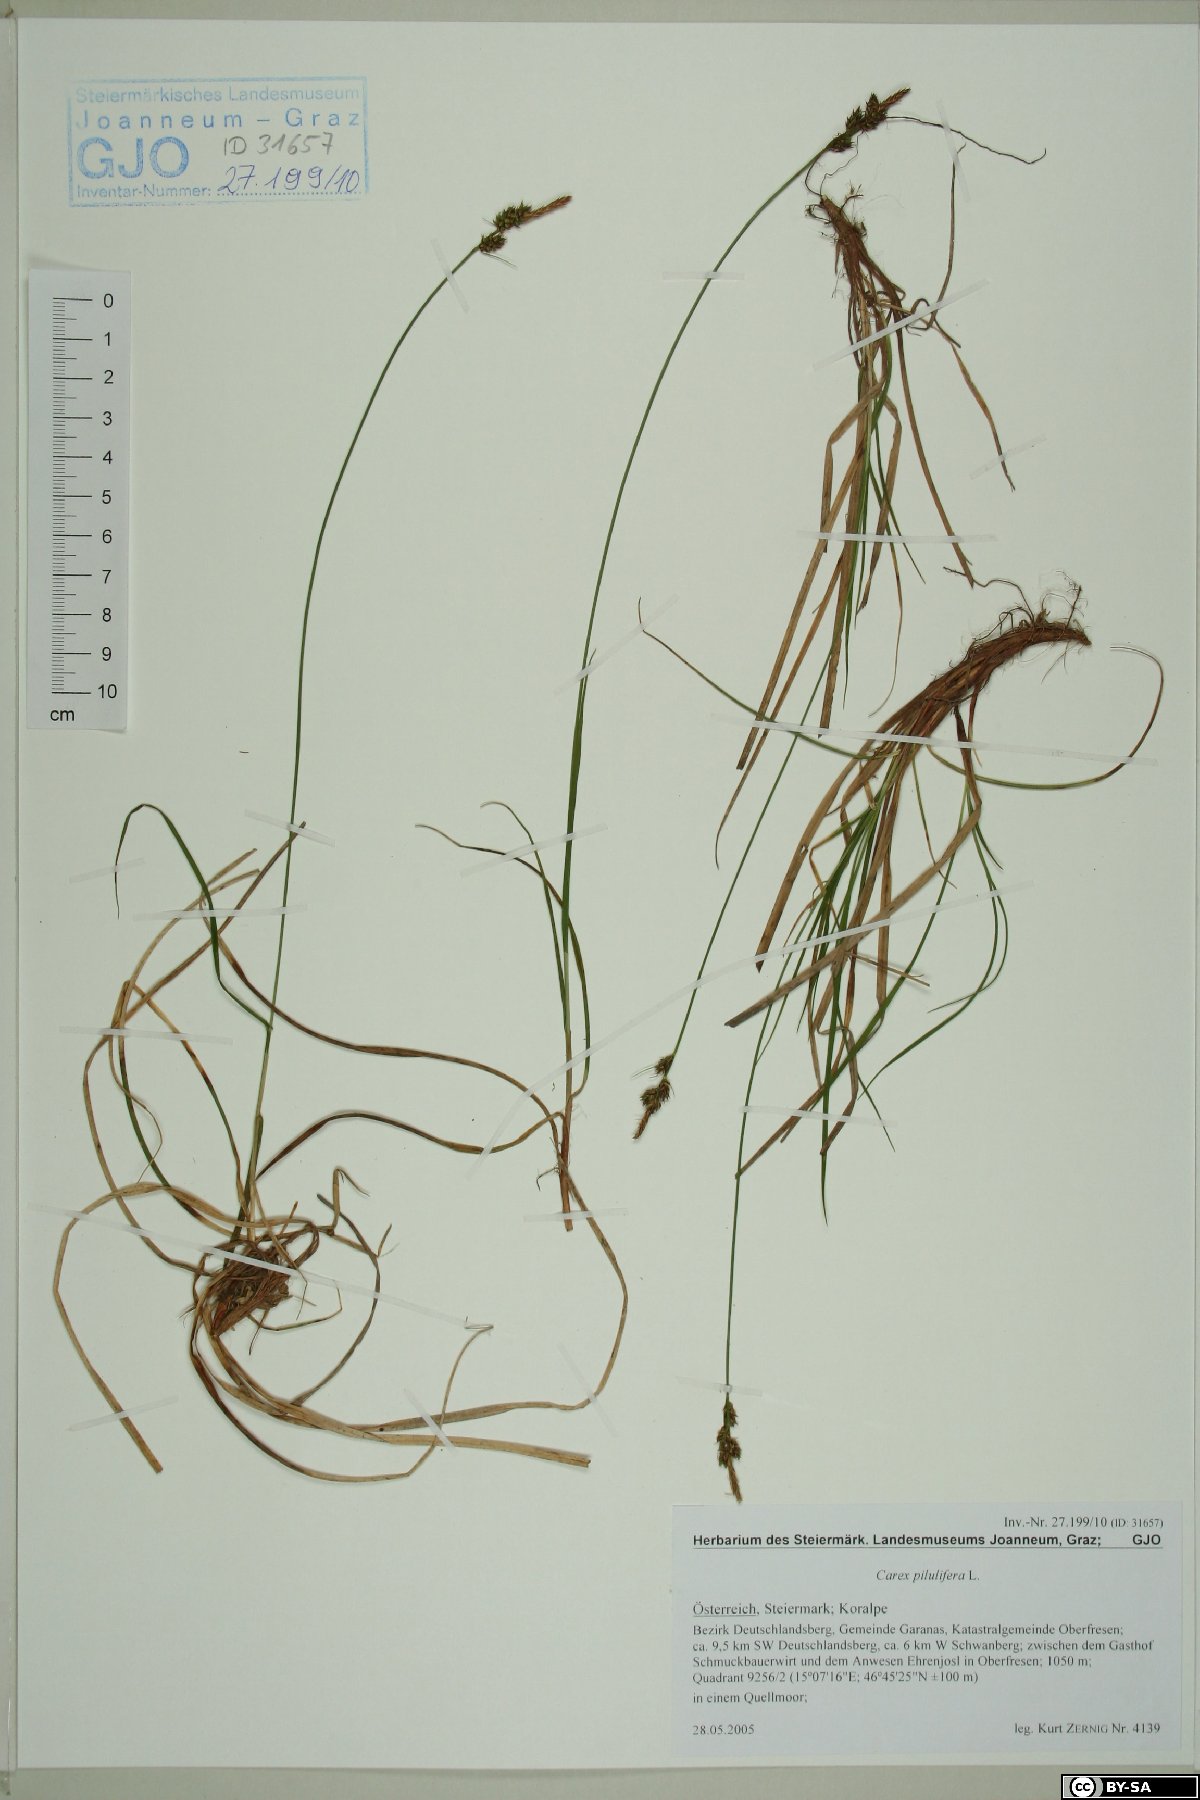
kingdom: Plantae
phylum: Tracheophyta
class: Liliopsida
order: Poales
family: Cyperaceae
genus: Carex
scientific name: Carex pilulifera
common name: Pill sedge
